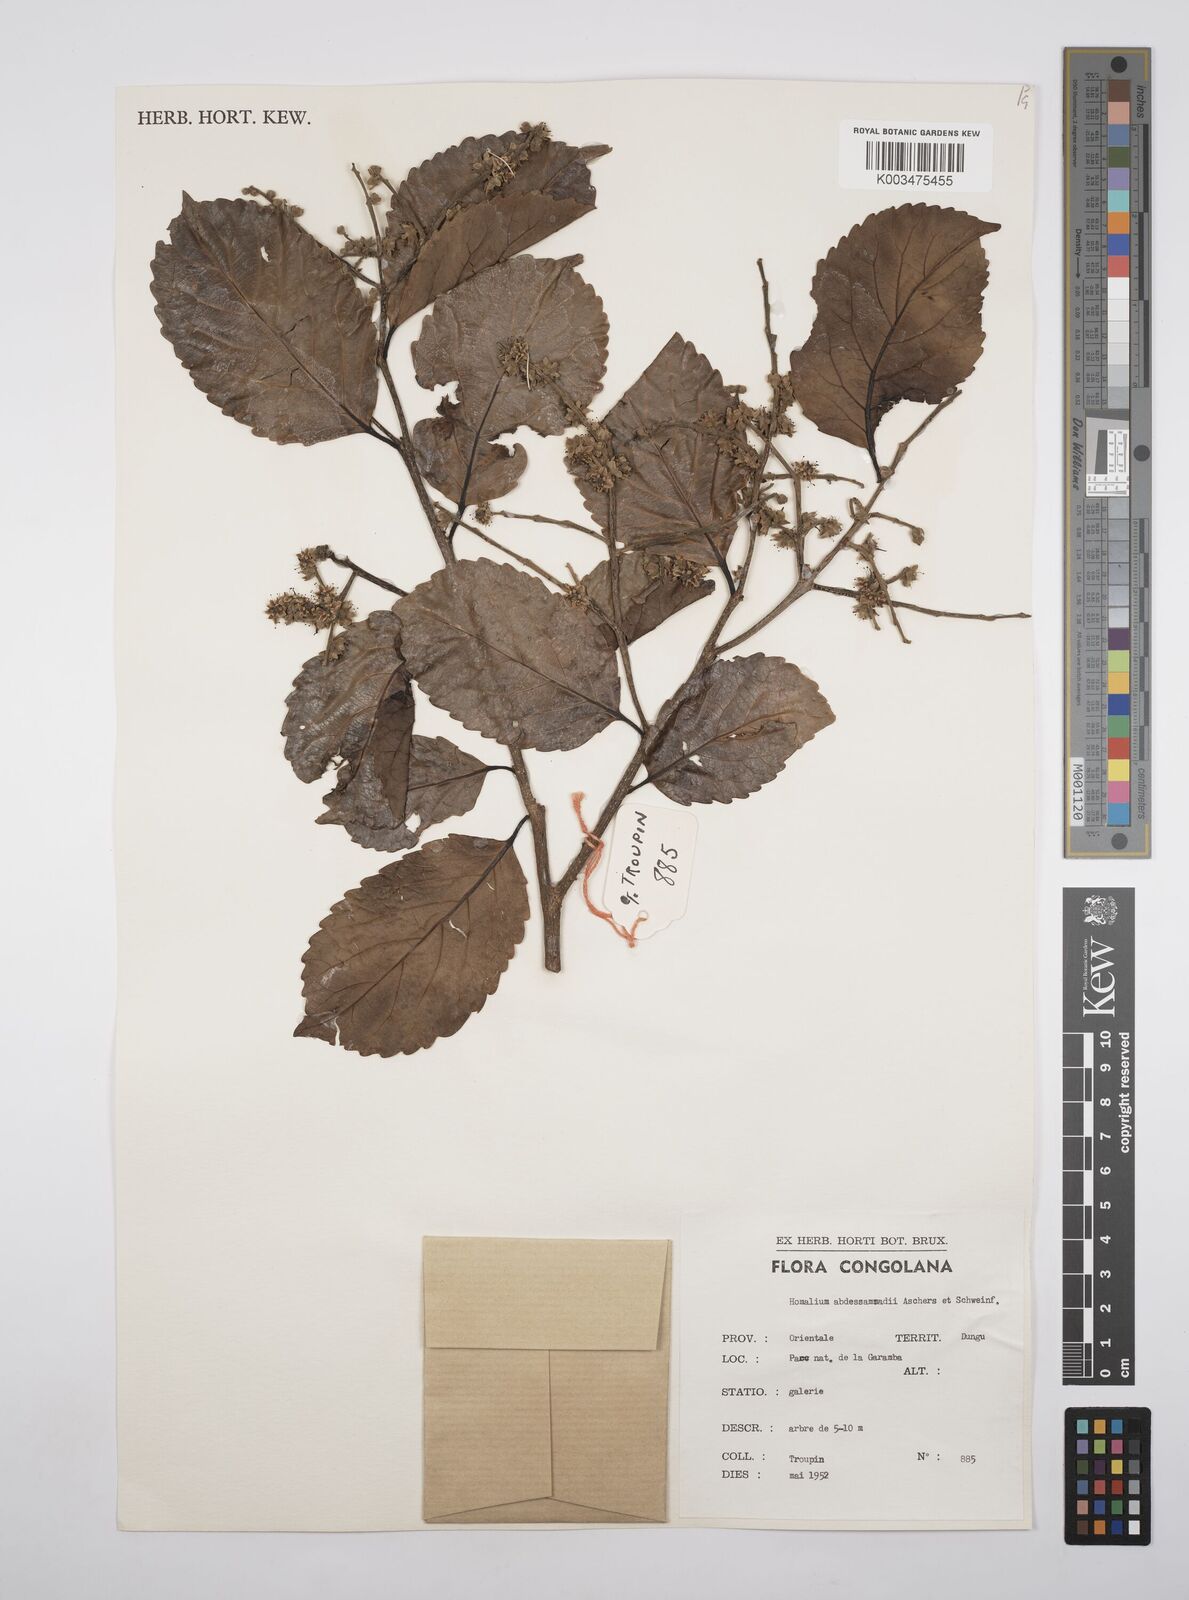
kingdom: Plantae
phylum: Tracheophyta
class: Magnoliopsida
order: Malpighiales
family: Salicaceae
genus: Homalium
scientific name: Homalium abdessammadii
